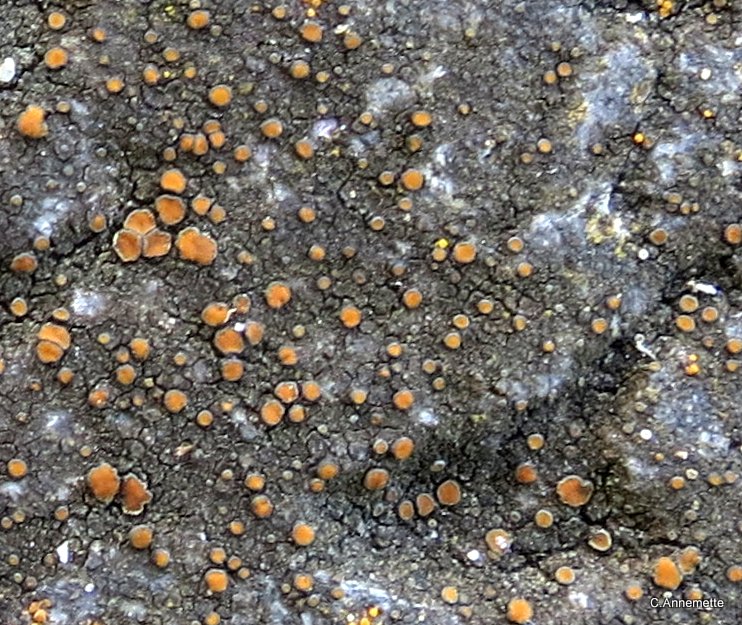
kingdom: Fungi
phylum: Ascomycota
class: Lecanoromycetes
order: Teloschistales
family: Teloschistaceae
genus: Caloplaca
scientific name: Caloplaca chlorina
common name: mørkskællet orangelav
